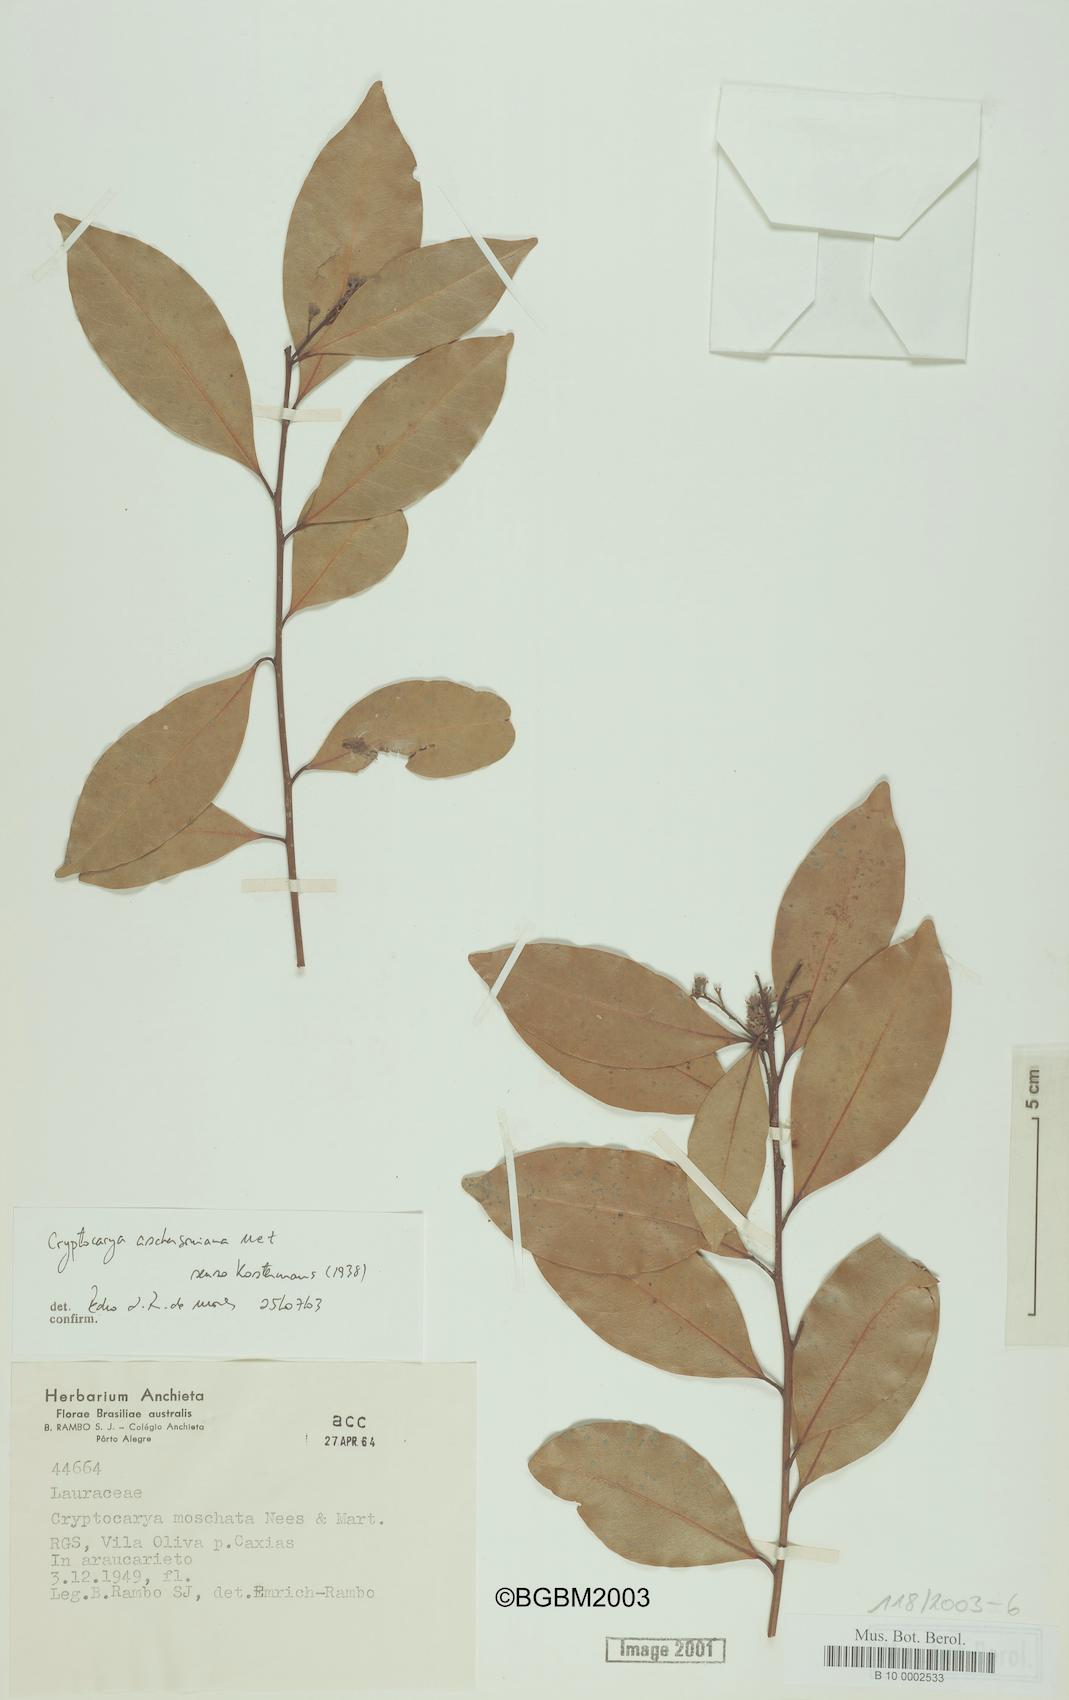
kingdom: Plantae
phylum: Tracheophyta
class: Magnoliopsida
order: Laurales
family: Lauraceae
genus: Cryptocarya
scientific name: Cryptocarya moschata
